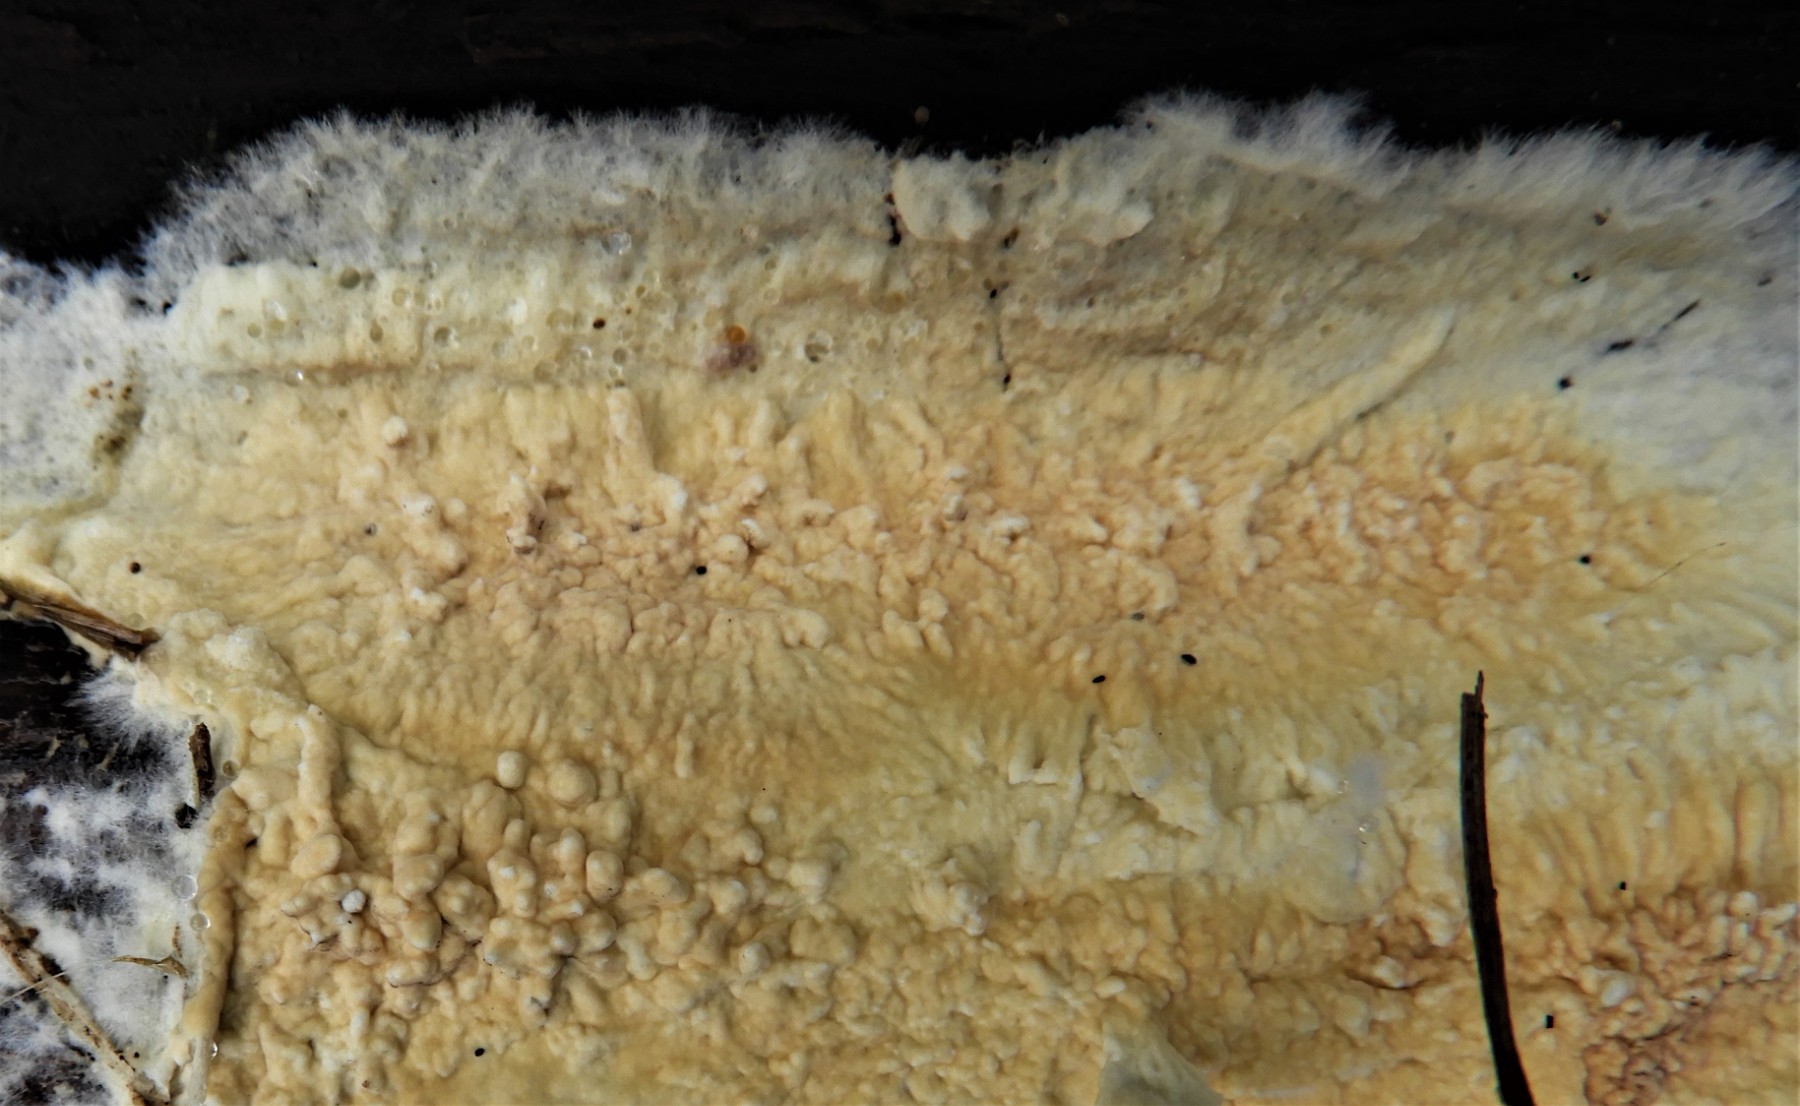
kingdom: Fungi
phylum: Basidiomycota
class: Agaricomycetes
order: Boletales
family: Coniophoraceae
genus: Coniophora
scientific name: Coniophora puteana
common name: gul tømmersvamp
